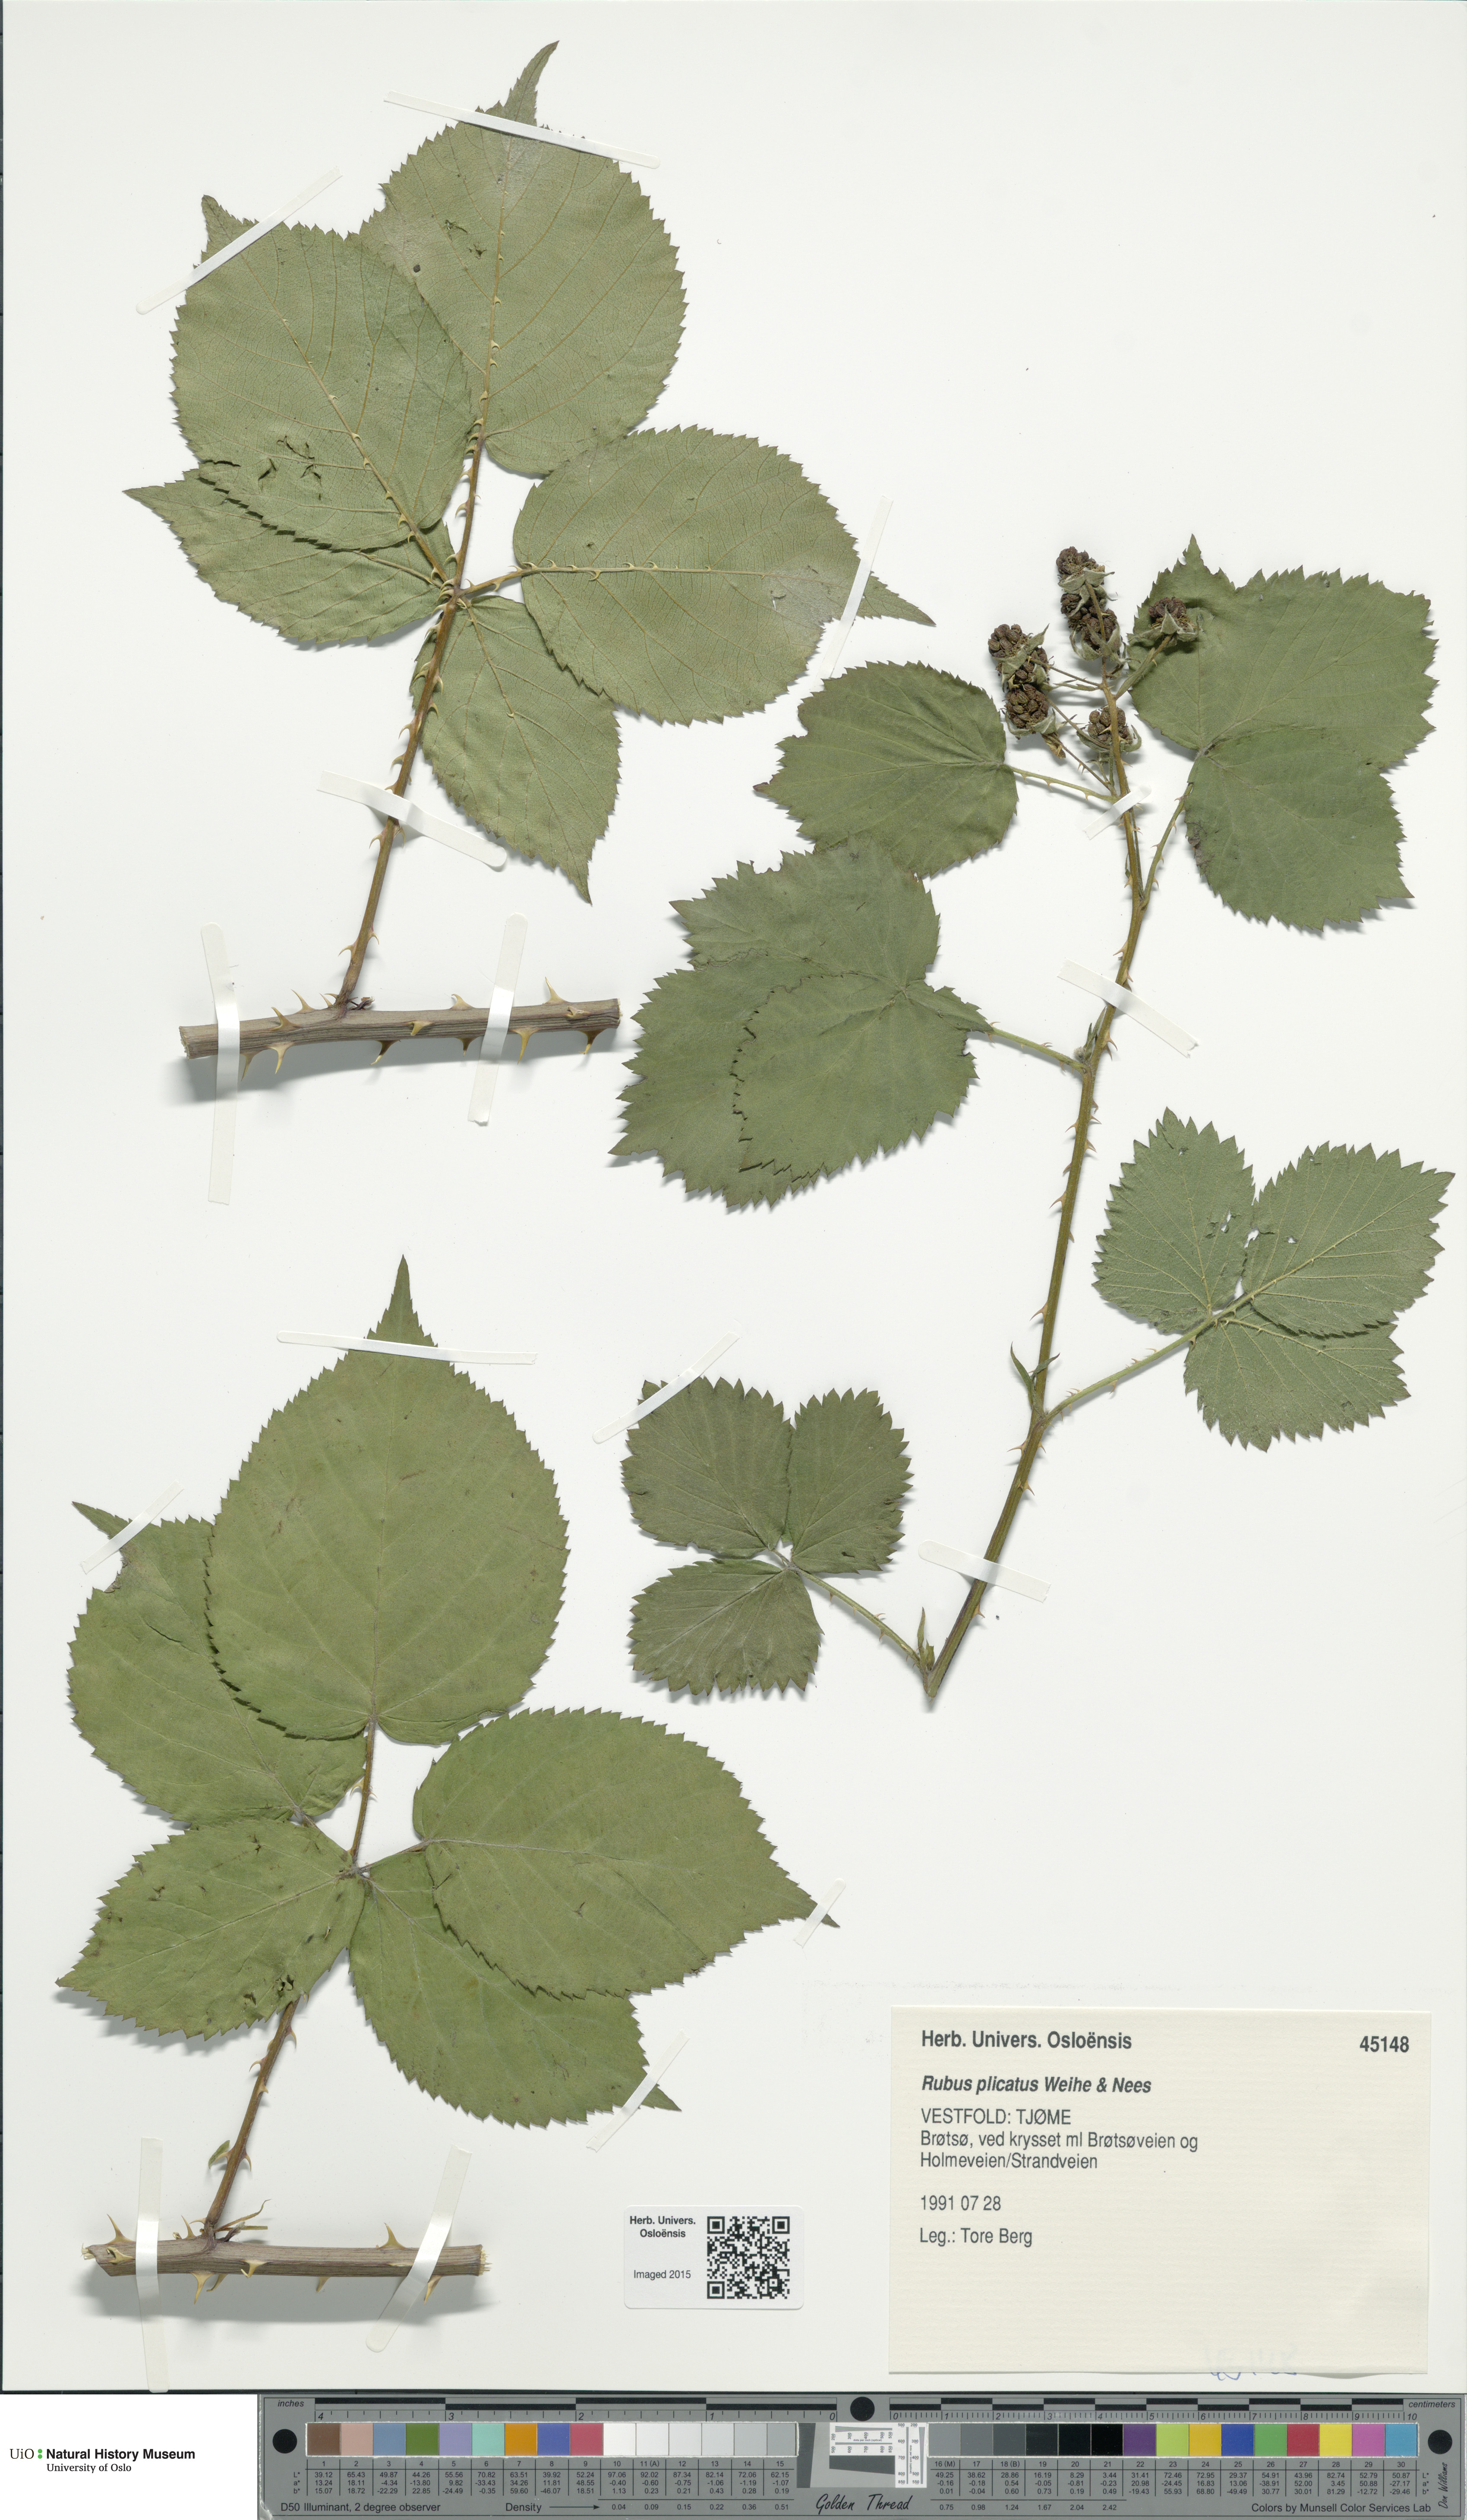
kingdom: Plantae
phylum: Tracheophyta
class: Magnoliopsida
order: Rosales
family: Rosaceae
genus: Rubus
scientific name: Rubus fruticosus
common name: Blackberry, bramble
